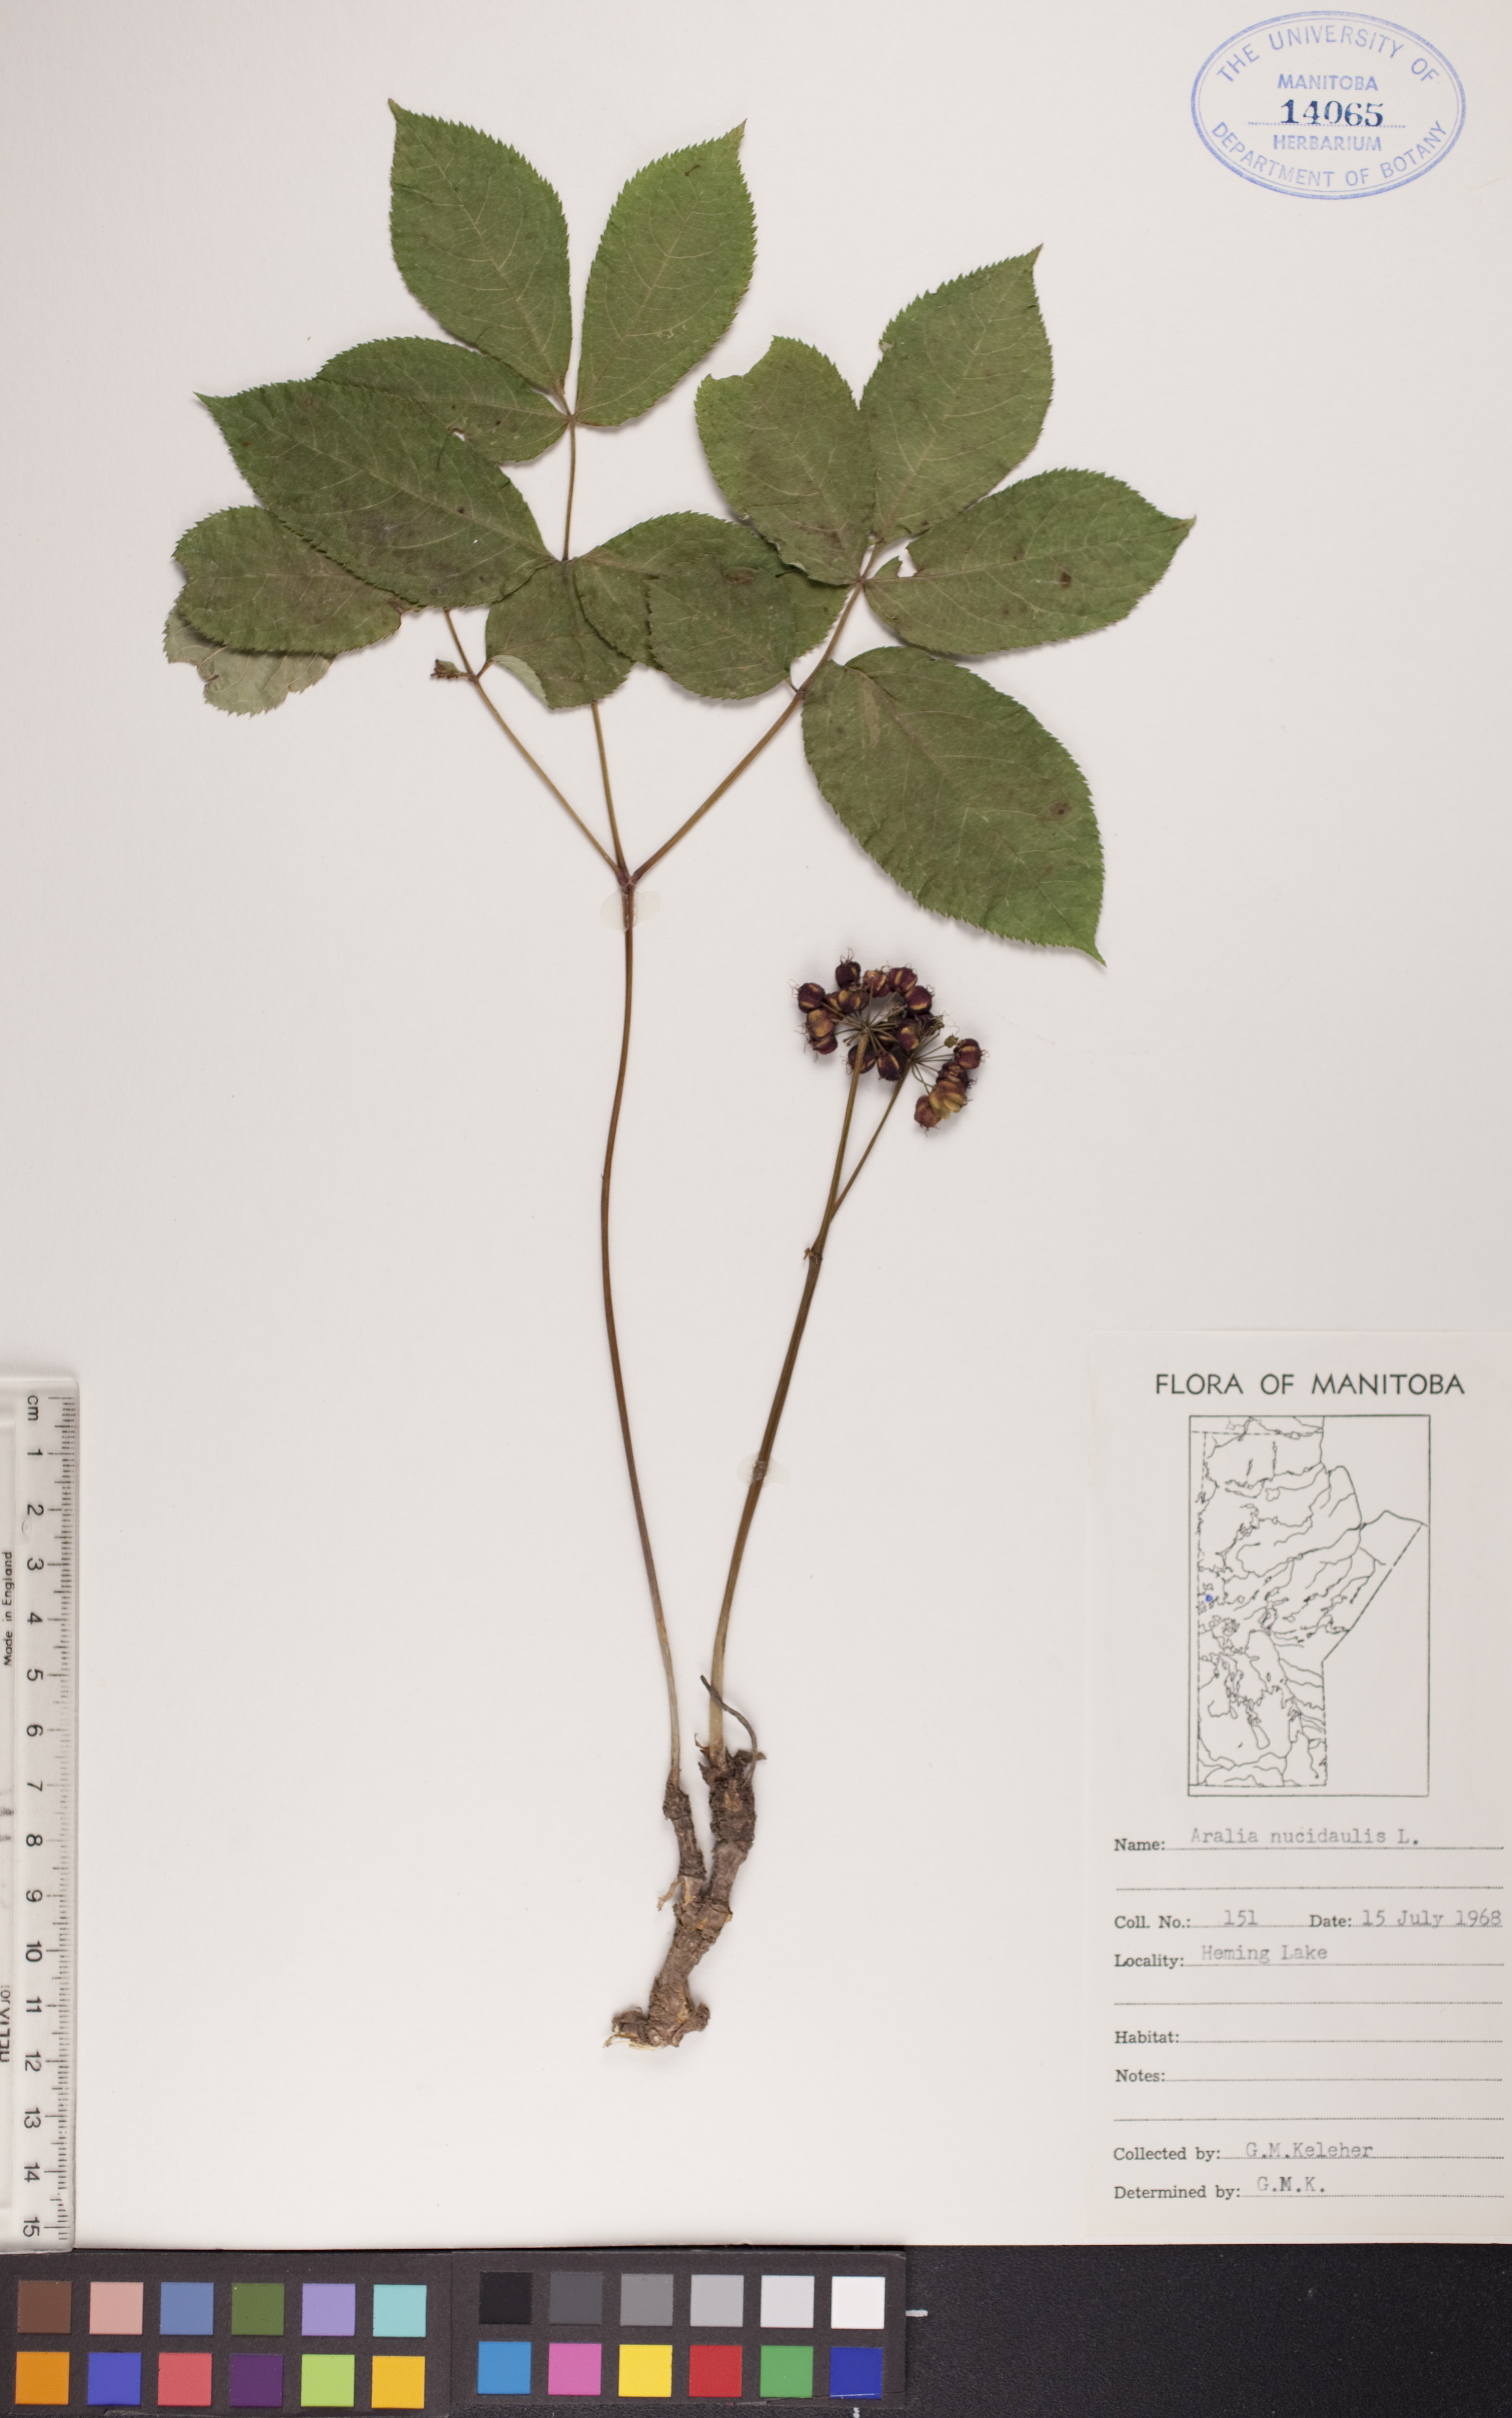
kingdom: Plantae
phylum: Tracheophyta
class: Magnoliopsida
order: Apiales
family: Araliaceae
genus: Aralia
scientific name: Aralia nudicaulis
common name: Wild sarsaparilla
